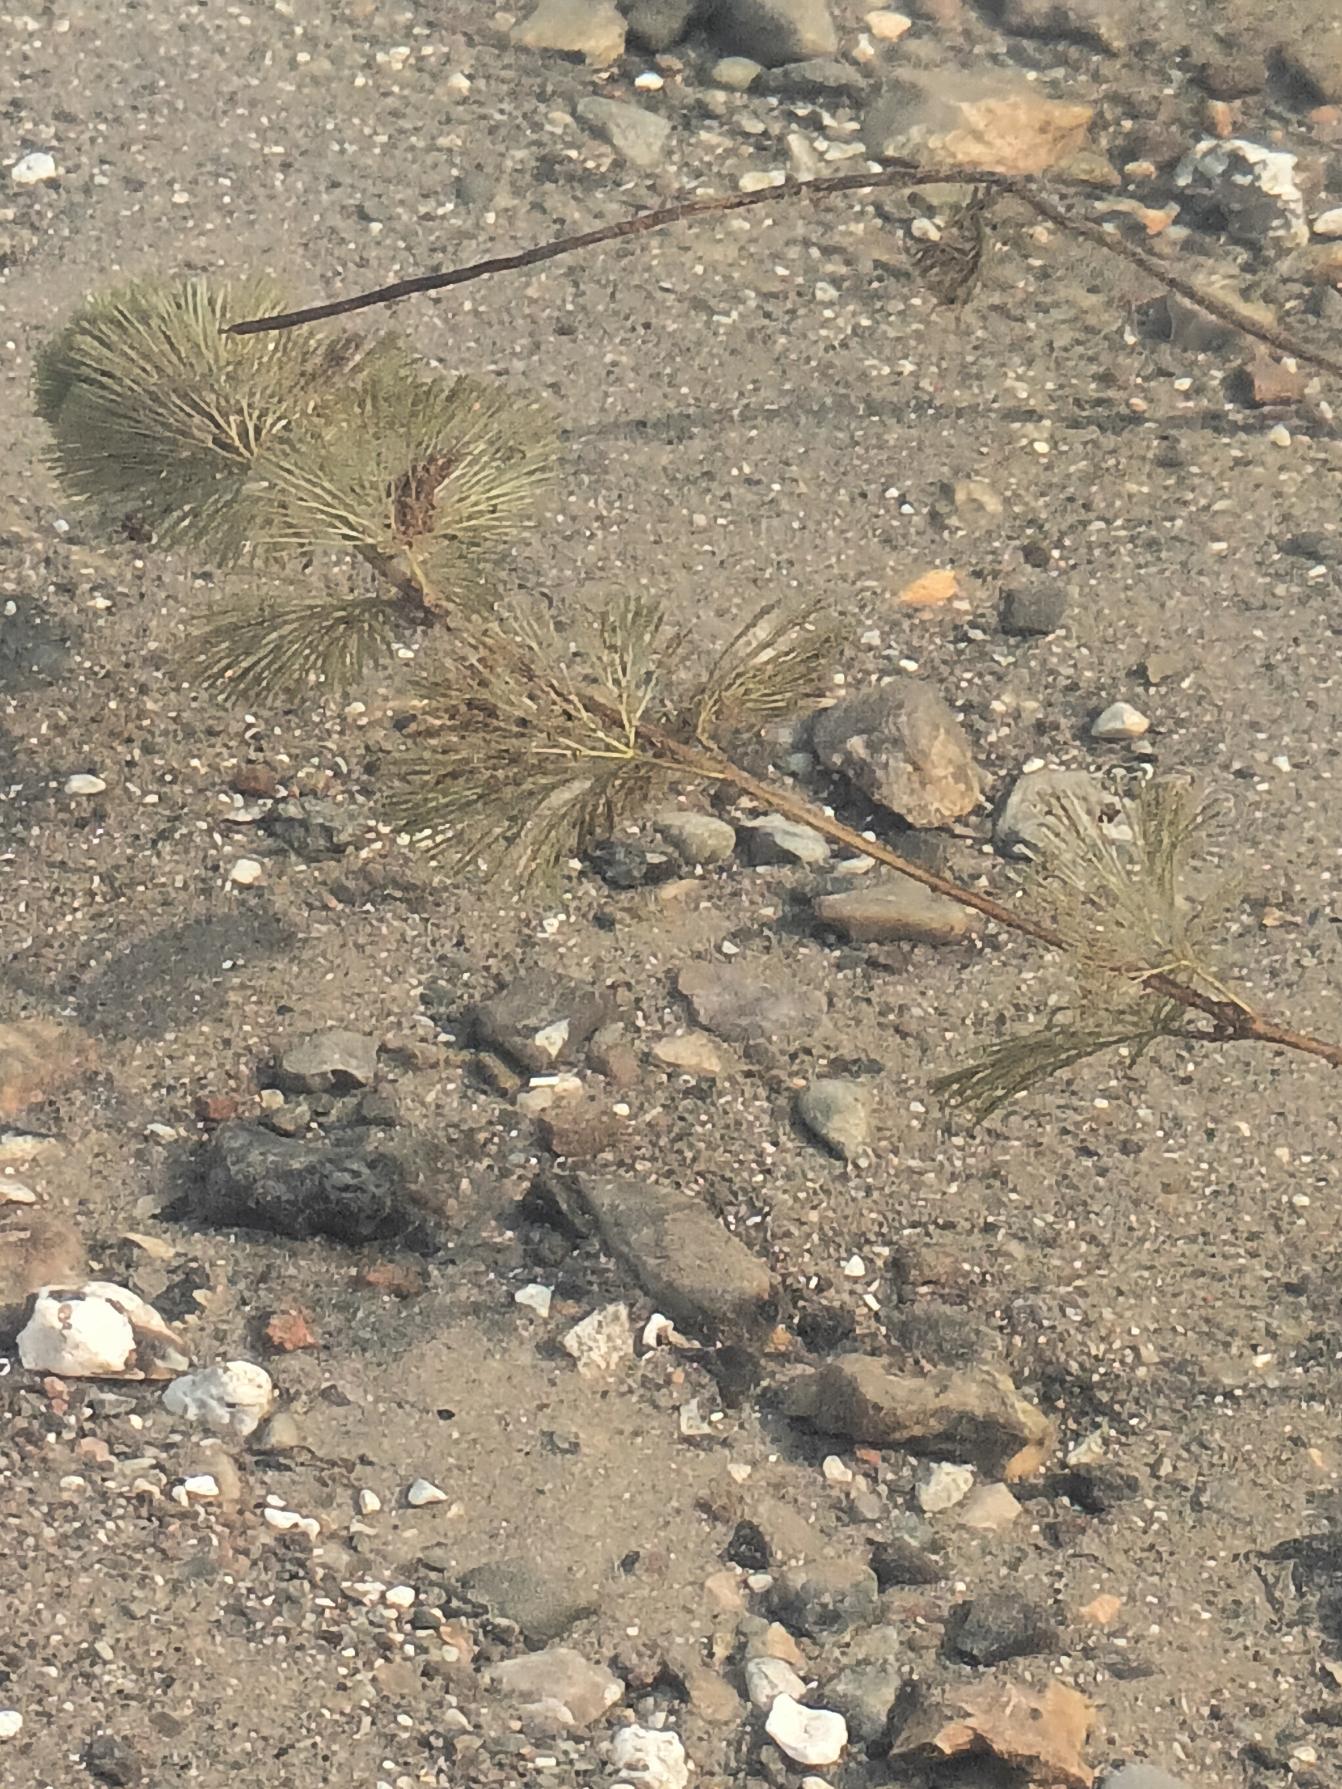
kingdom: Plantae
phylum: Tracheophyta
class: Magnoliopsida
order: Nymphaeales
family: Cabombaceae
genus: Cabomba
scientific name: Cabomba caroliniana
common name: Grøn cabomba
